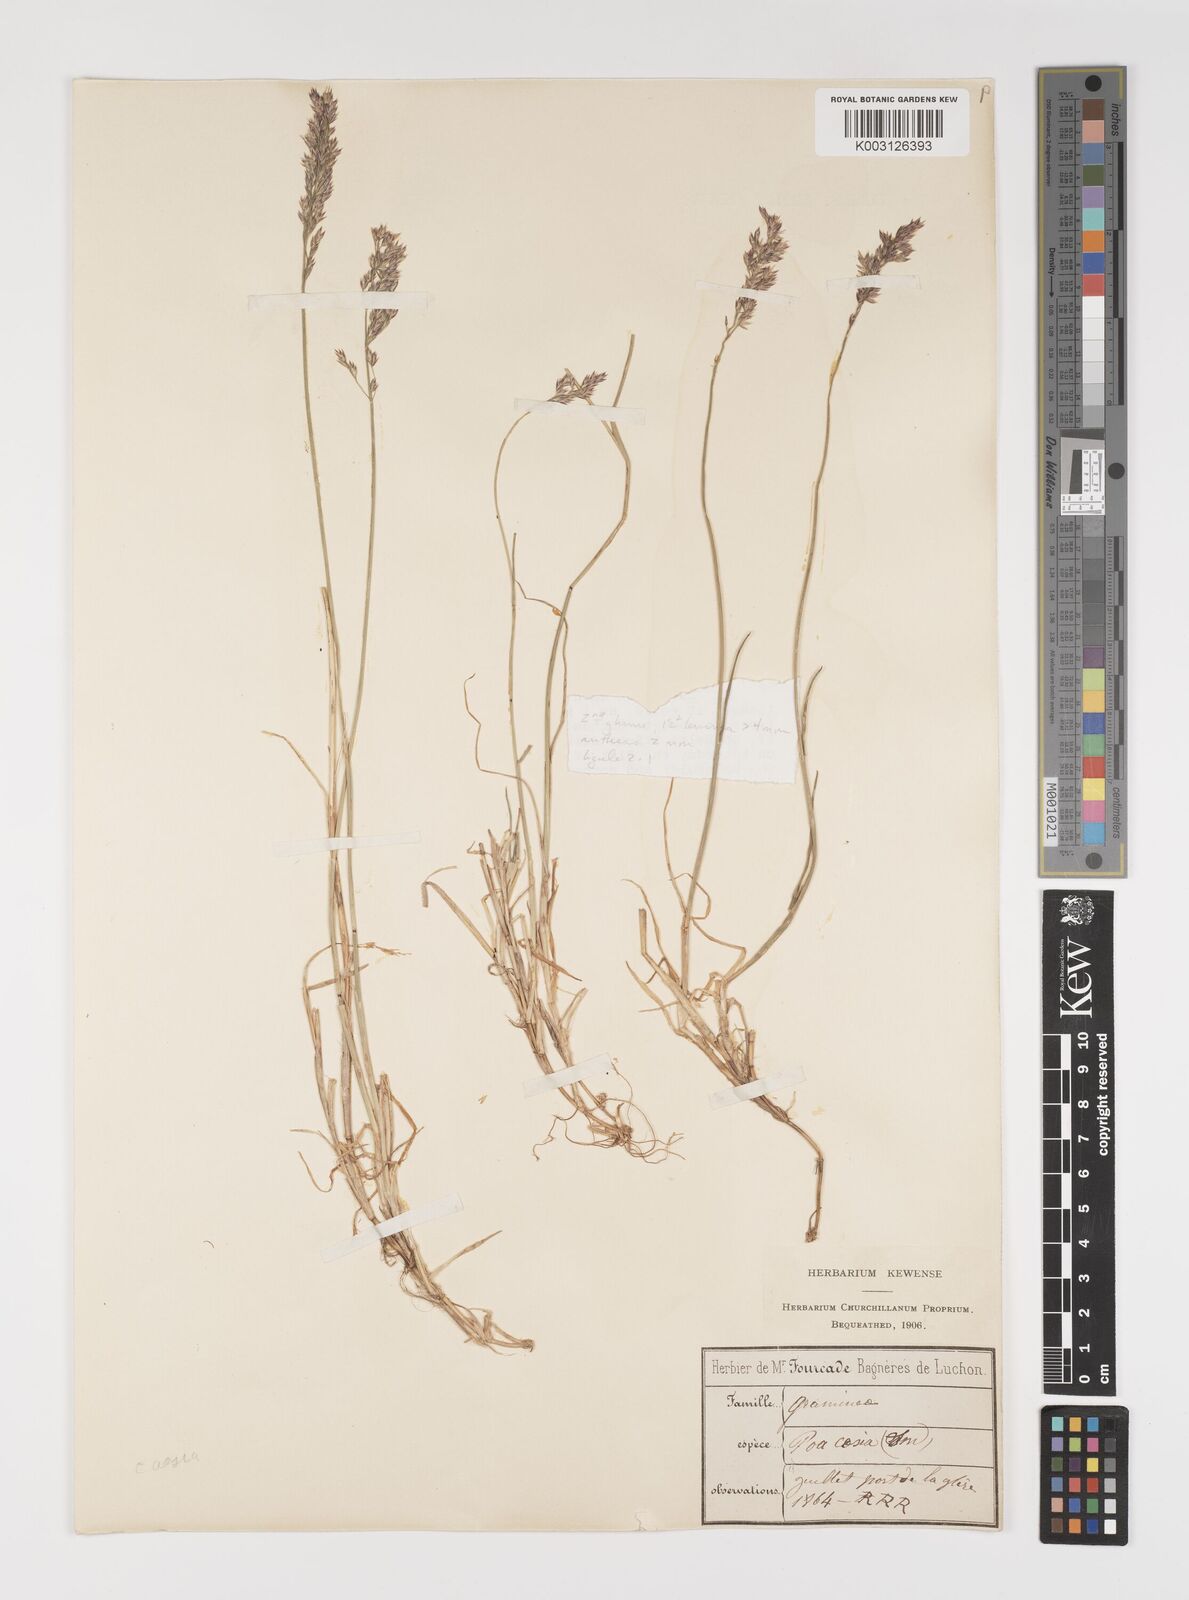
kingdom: Plantae
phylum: Tracheophyta
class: Liliopsida
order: Poales
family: Poaceae
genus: Poa
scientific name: Poa glauca
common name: Glaucous bluegrass
